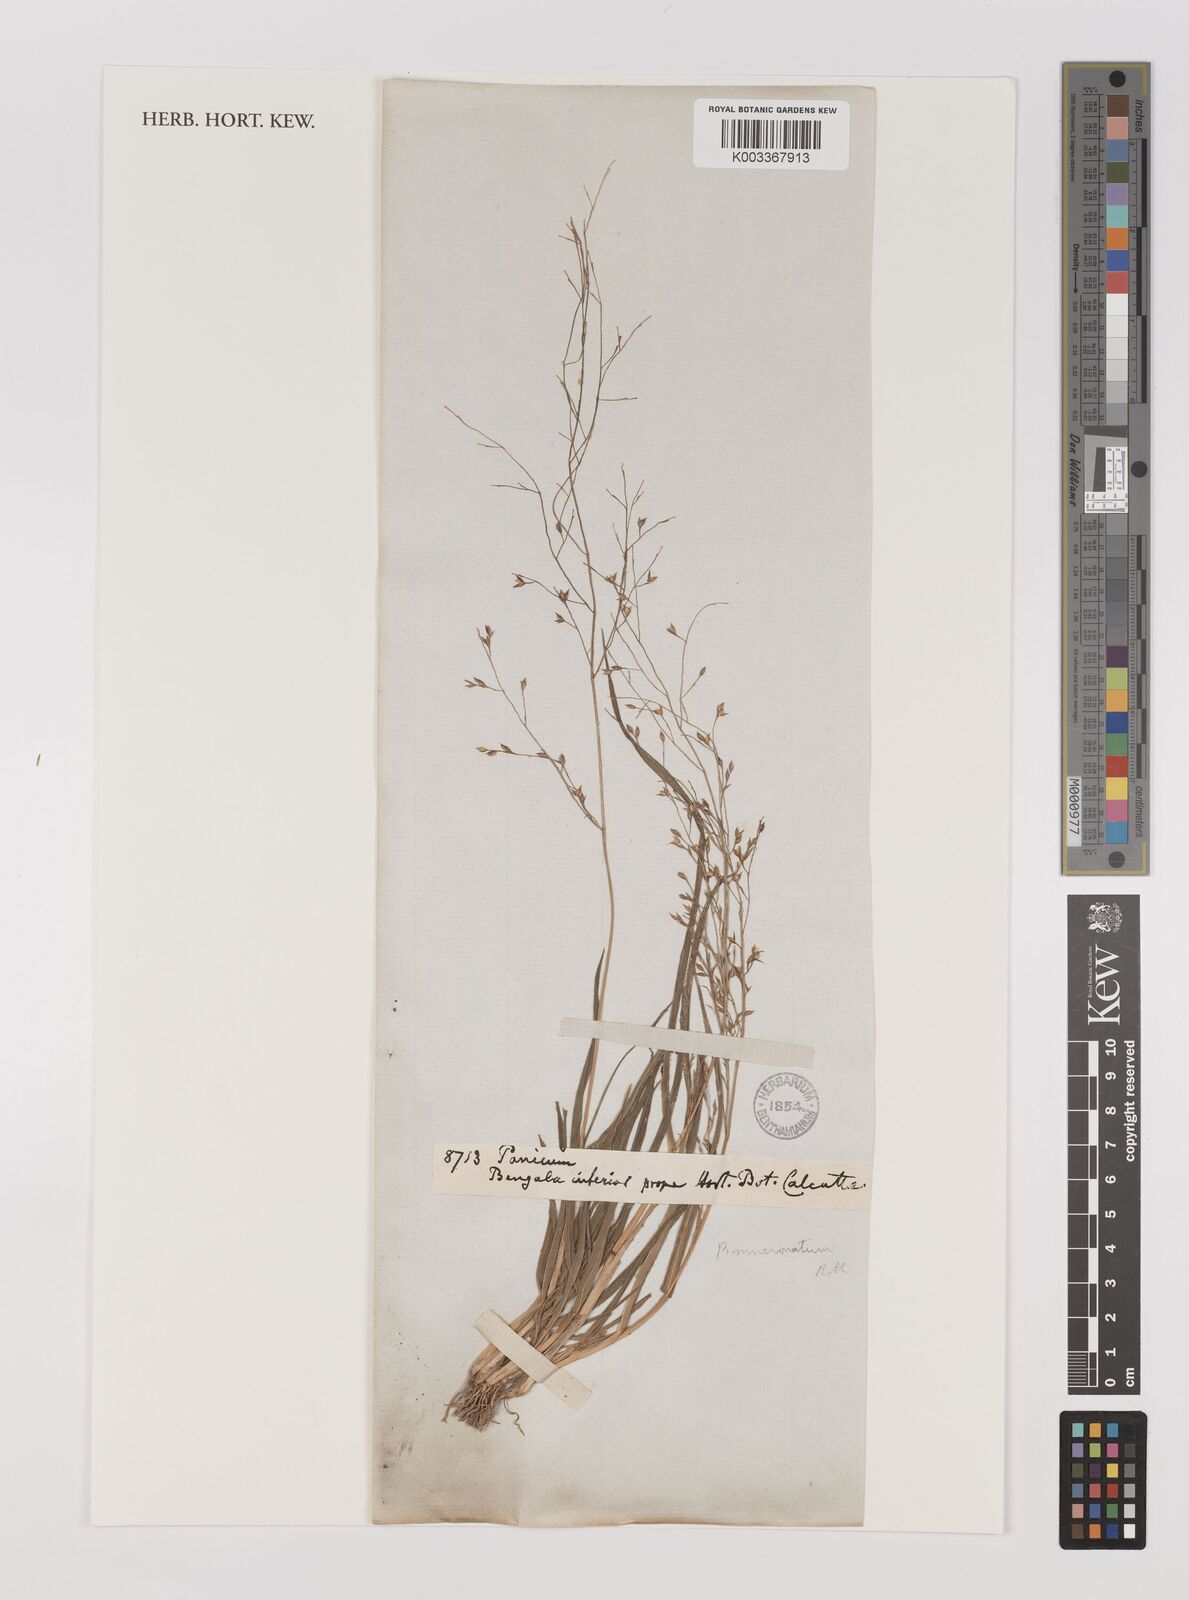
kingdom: Plantae
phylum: Tracheophyta
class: Liliopsida
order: Poales
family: Poaceae
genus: Panicum
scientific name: Panicum miliaceum
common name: Common millet
